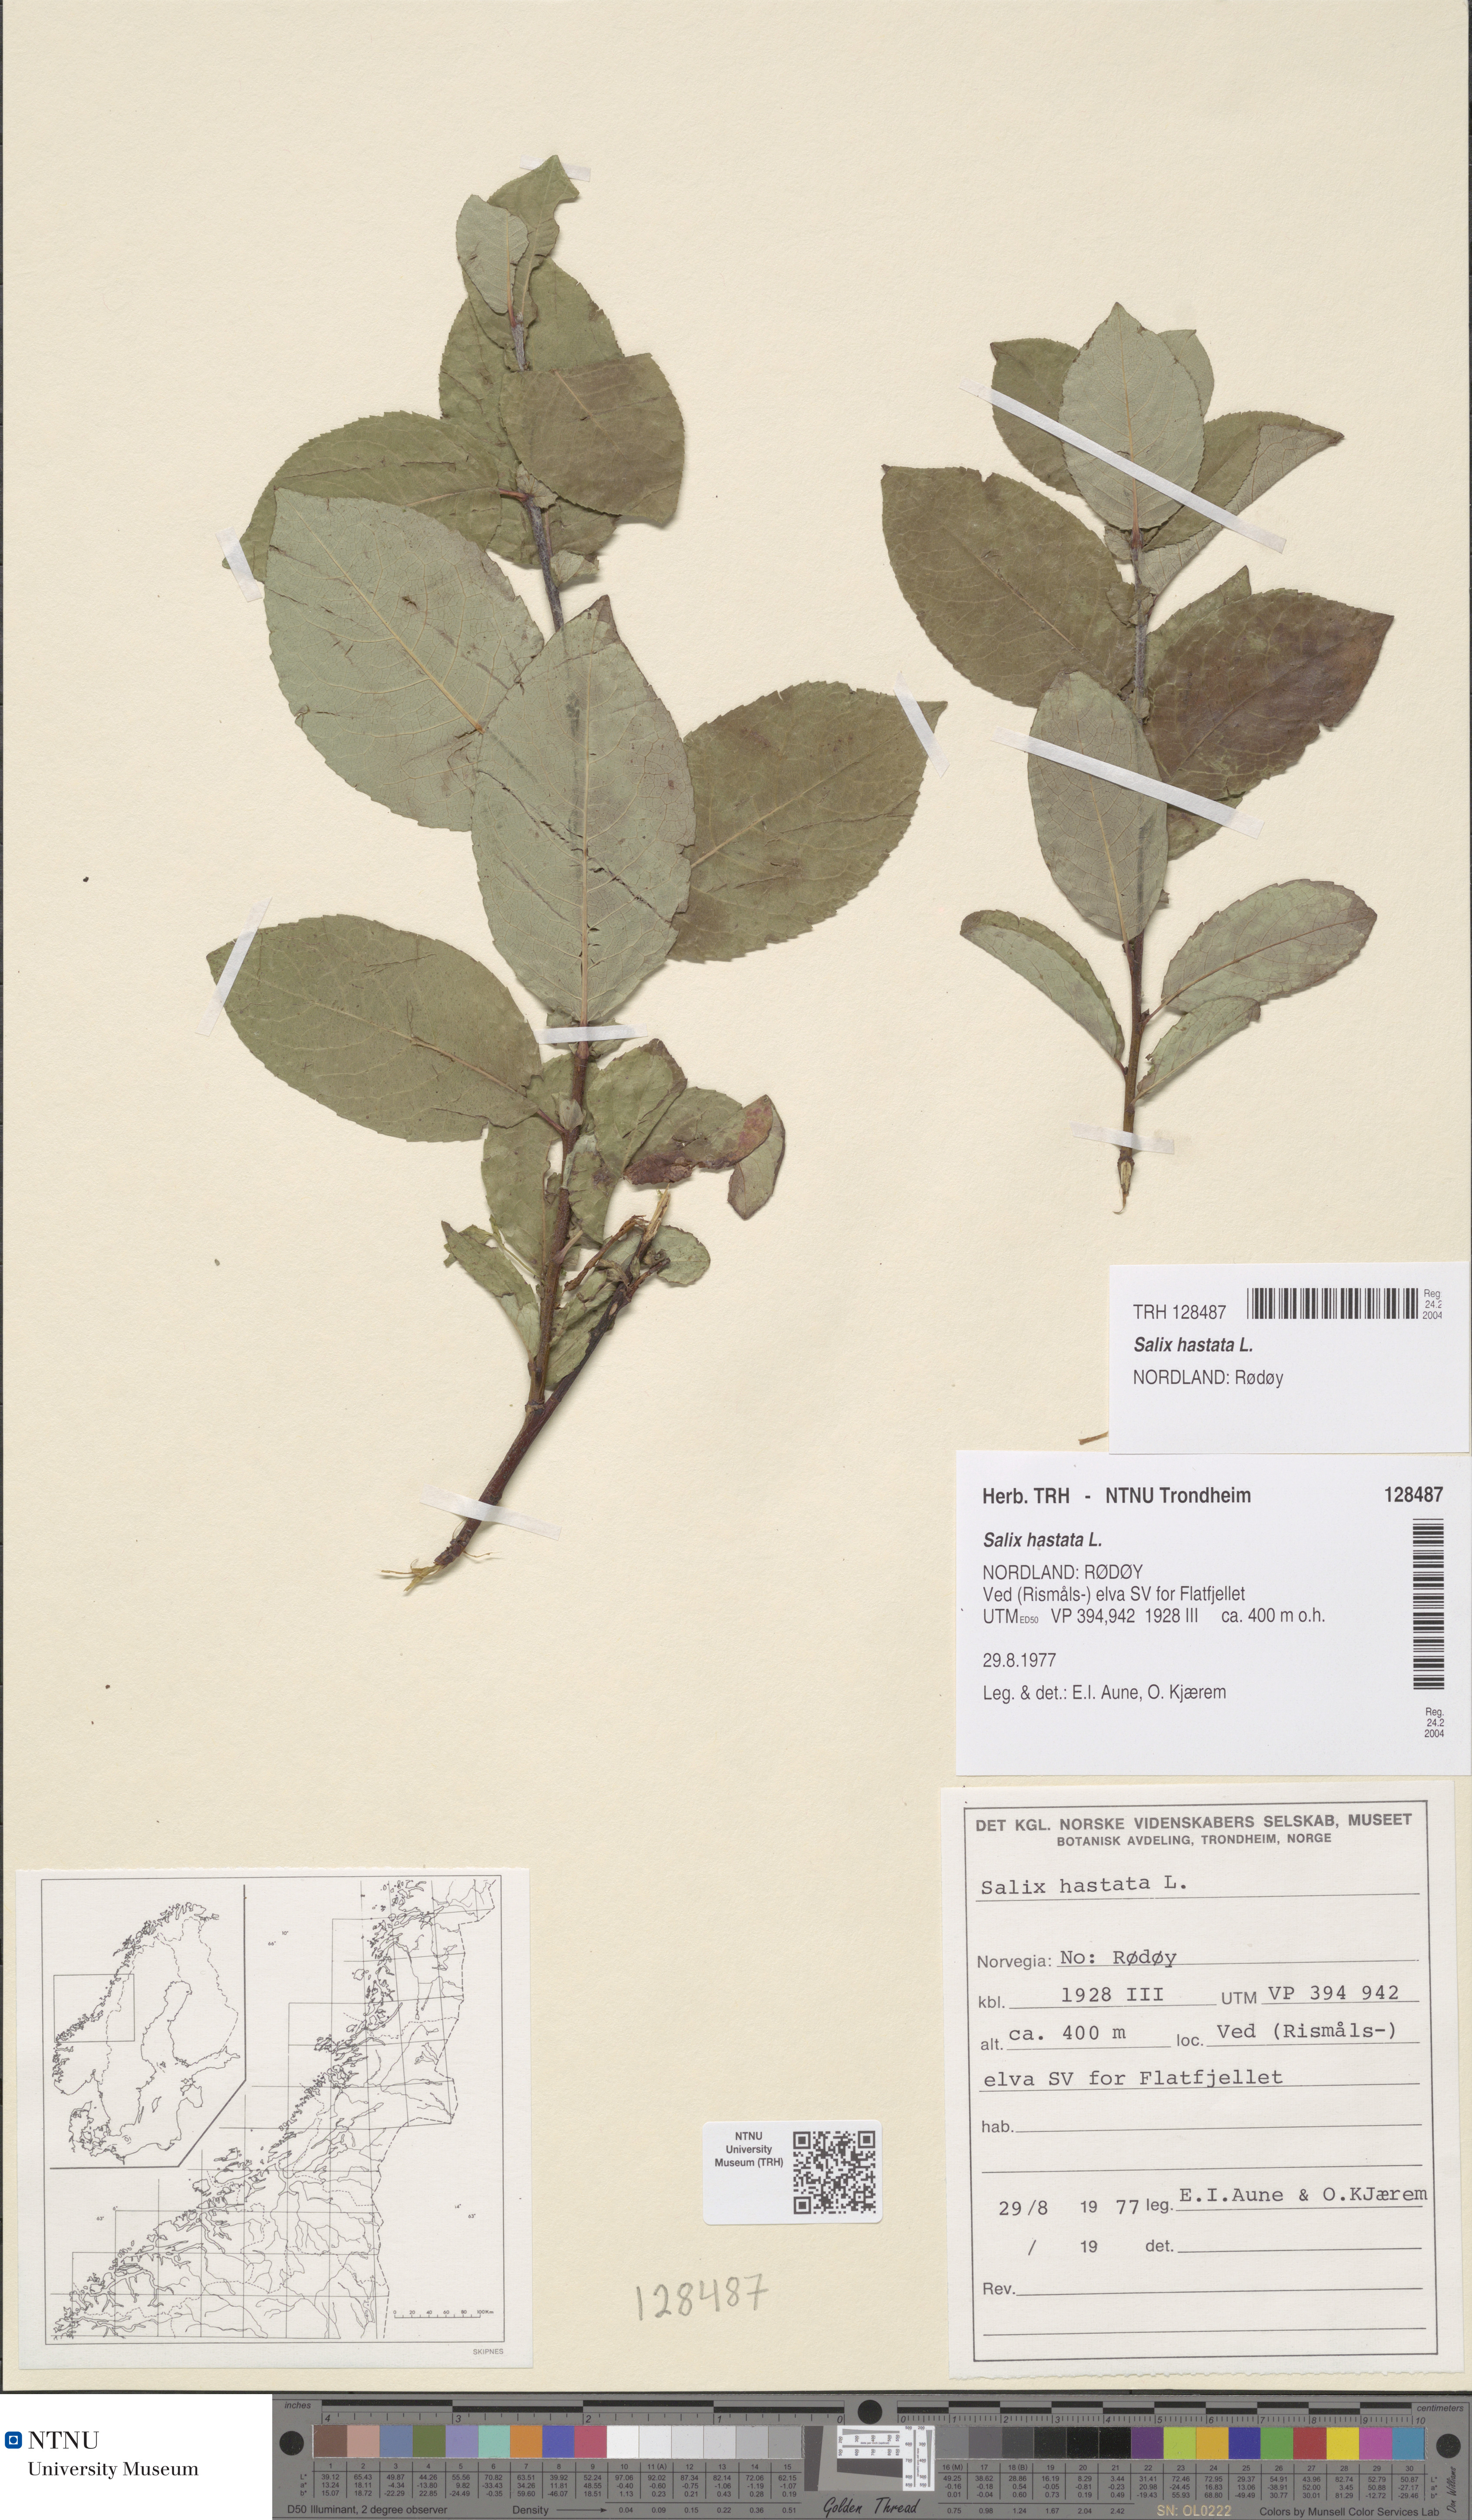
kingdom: Plantae
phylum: Tracheophyta
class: Magnoliopsida
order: Malpighiales
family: Salicaceae
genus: Salix
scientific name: Salix hastata
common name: Halberd willow
